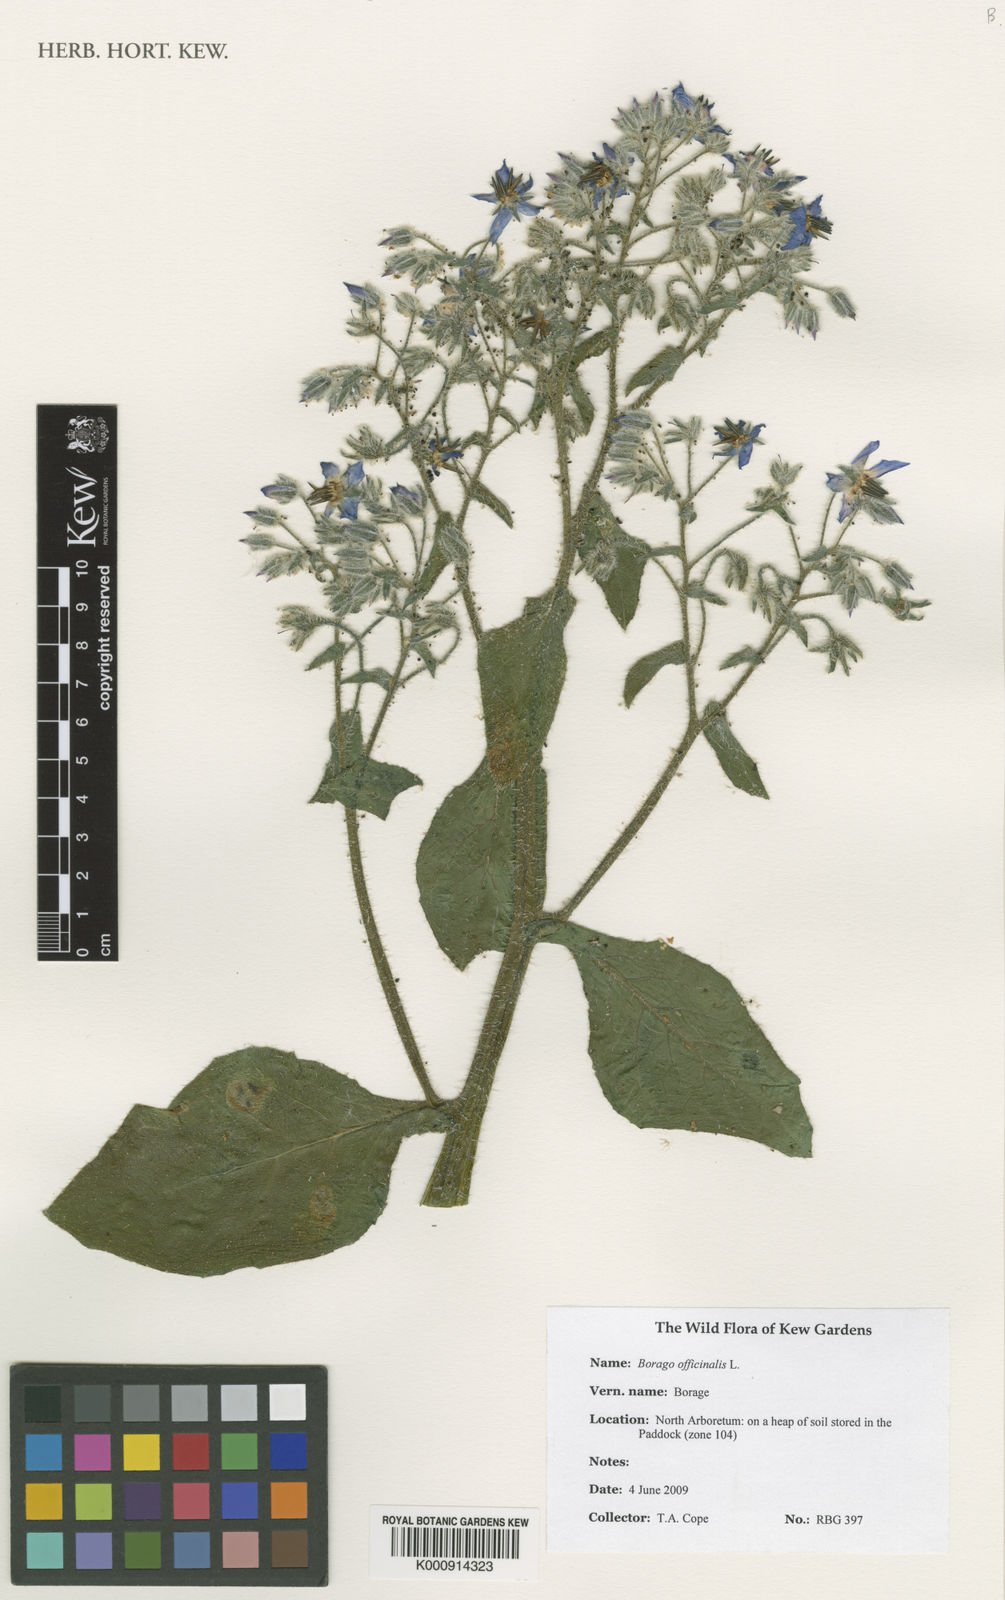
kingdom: Plantae
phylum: Tracheophyta
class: Magnoliopsida
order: Boraginales
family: Boraginaceae
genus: Borago
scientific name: Borago officinalis
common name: Borage
